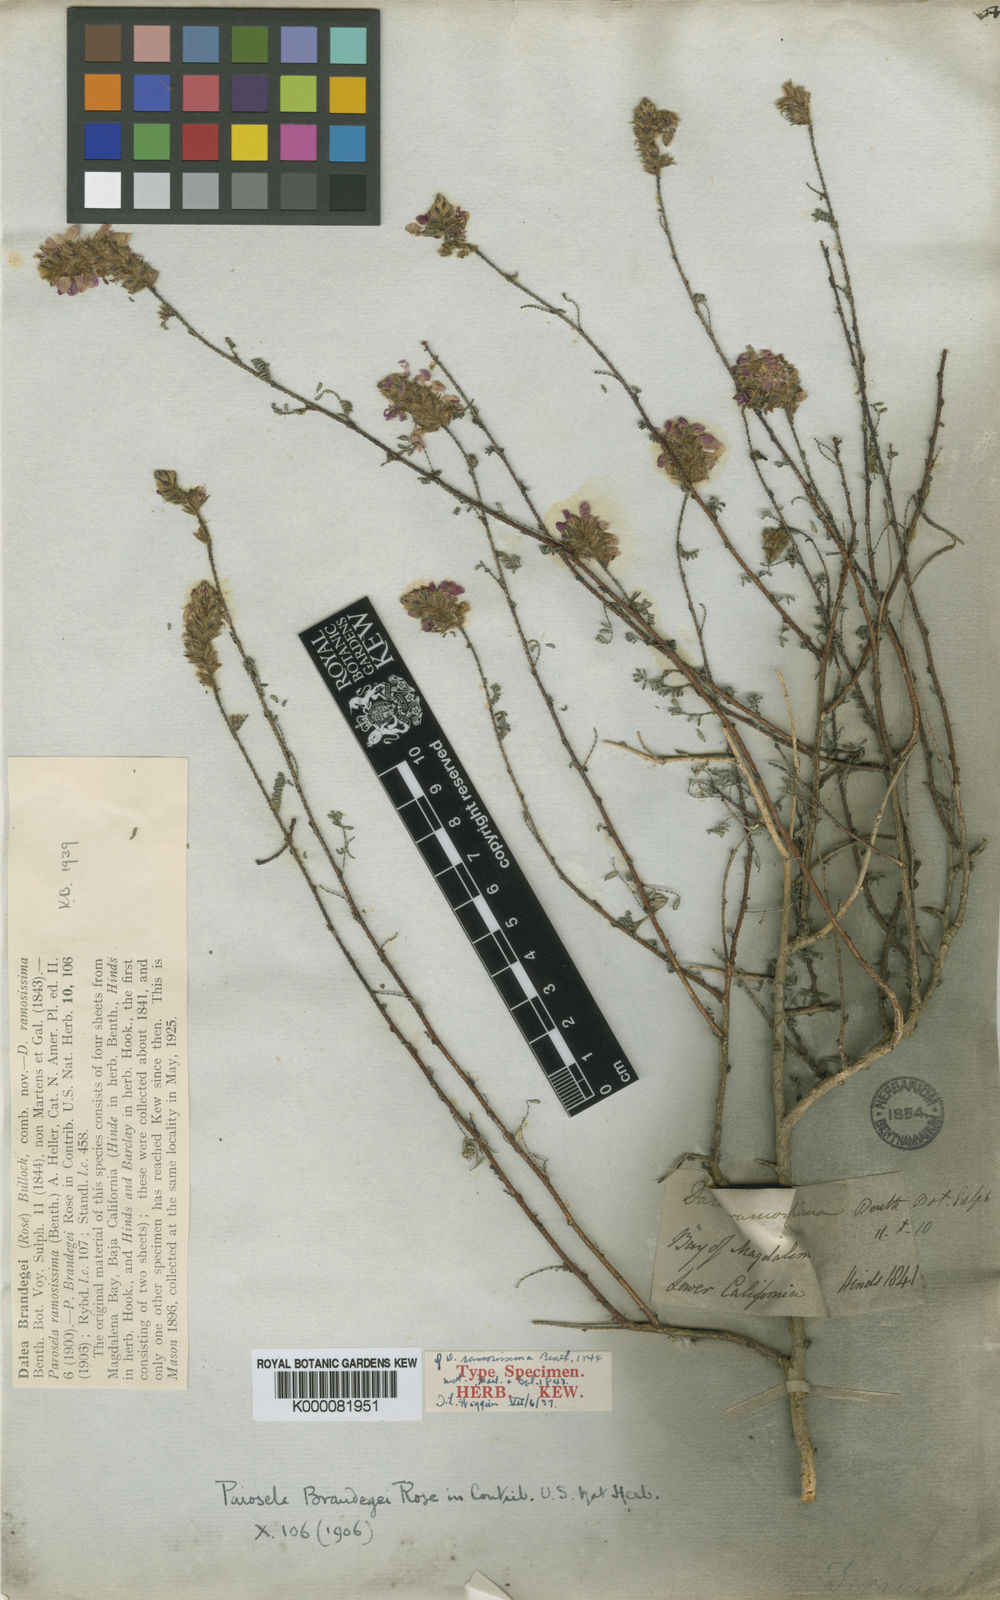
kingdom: Plantae
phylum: Tracheophyta
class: Magnoliopsida
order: Fabales
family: Fabaceae
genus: Dalea
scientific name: Dalea brandegeei
